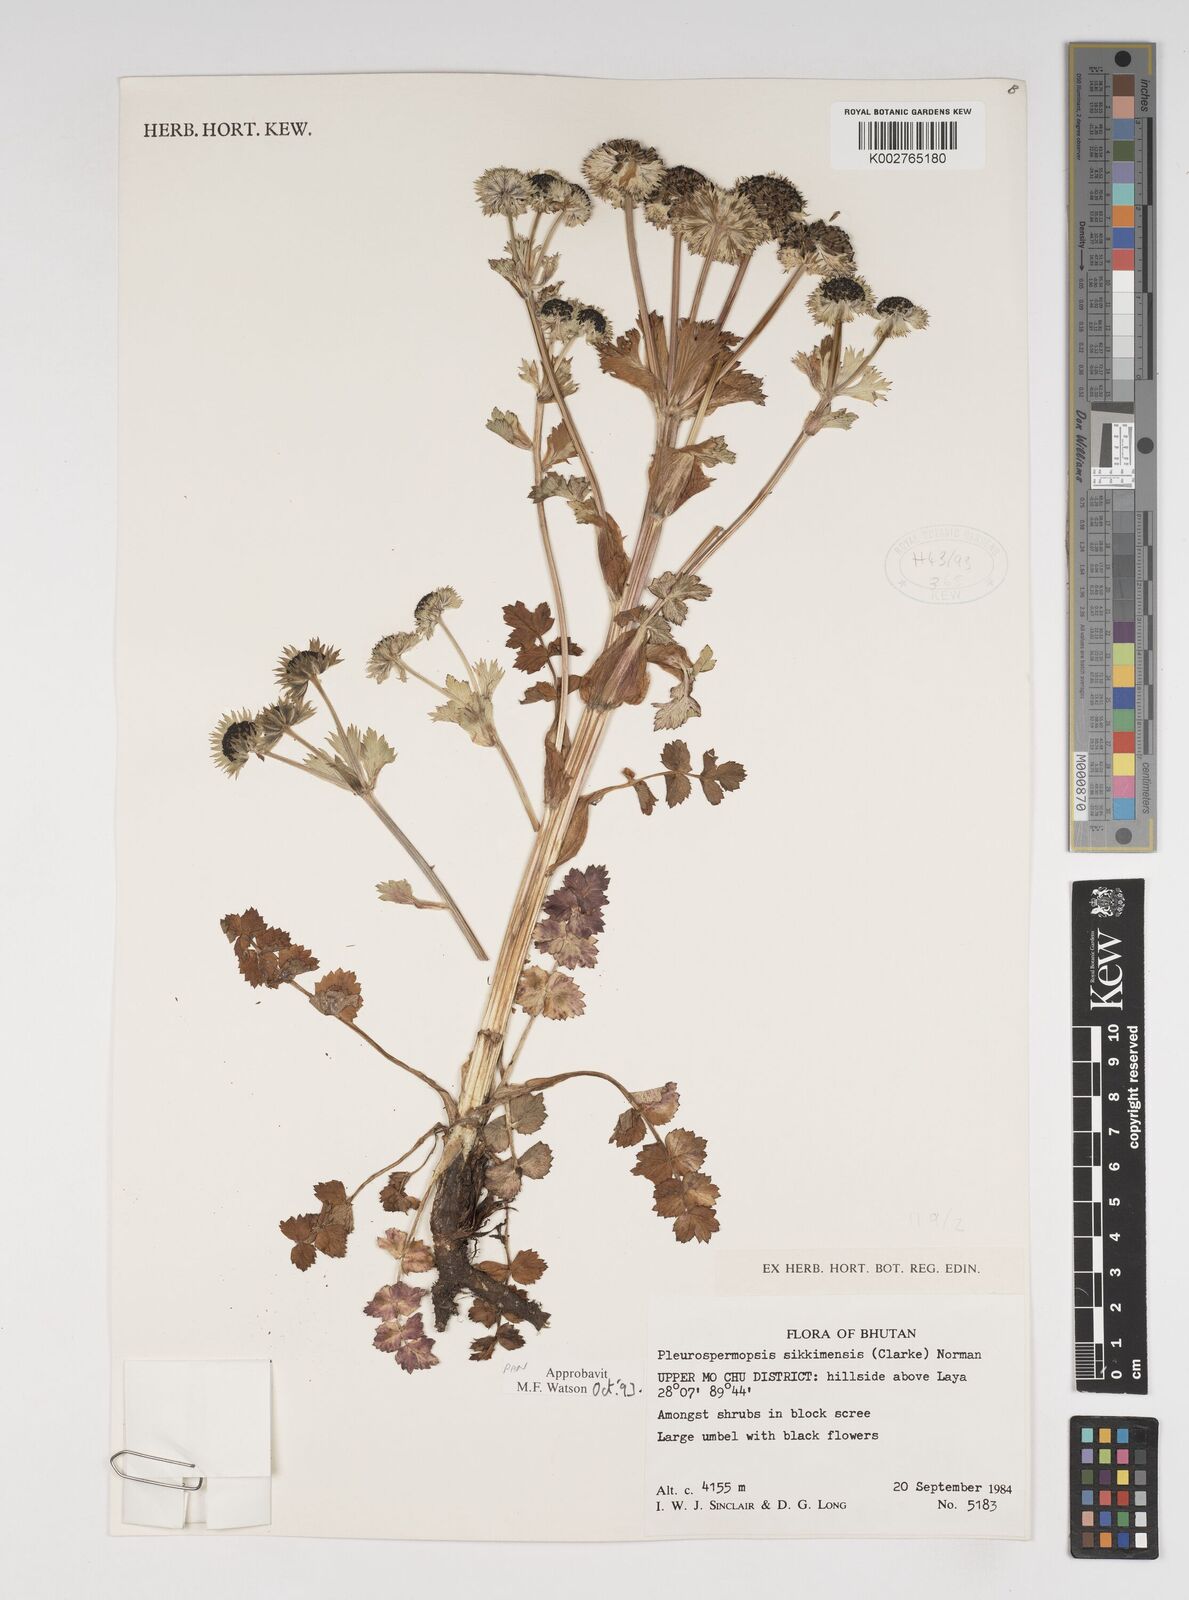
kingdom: Plantae
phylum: Tracheophyta
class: Magnoliopsida
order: Apiales
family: Apiaceae
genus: Pleurospermopsis
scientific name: Pleurospermopsis sikkimensis
